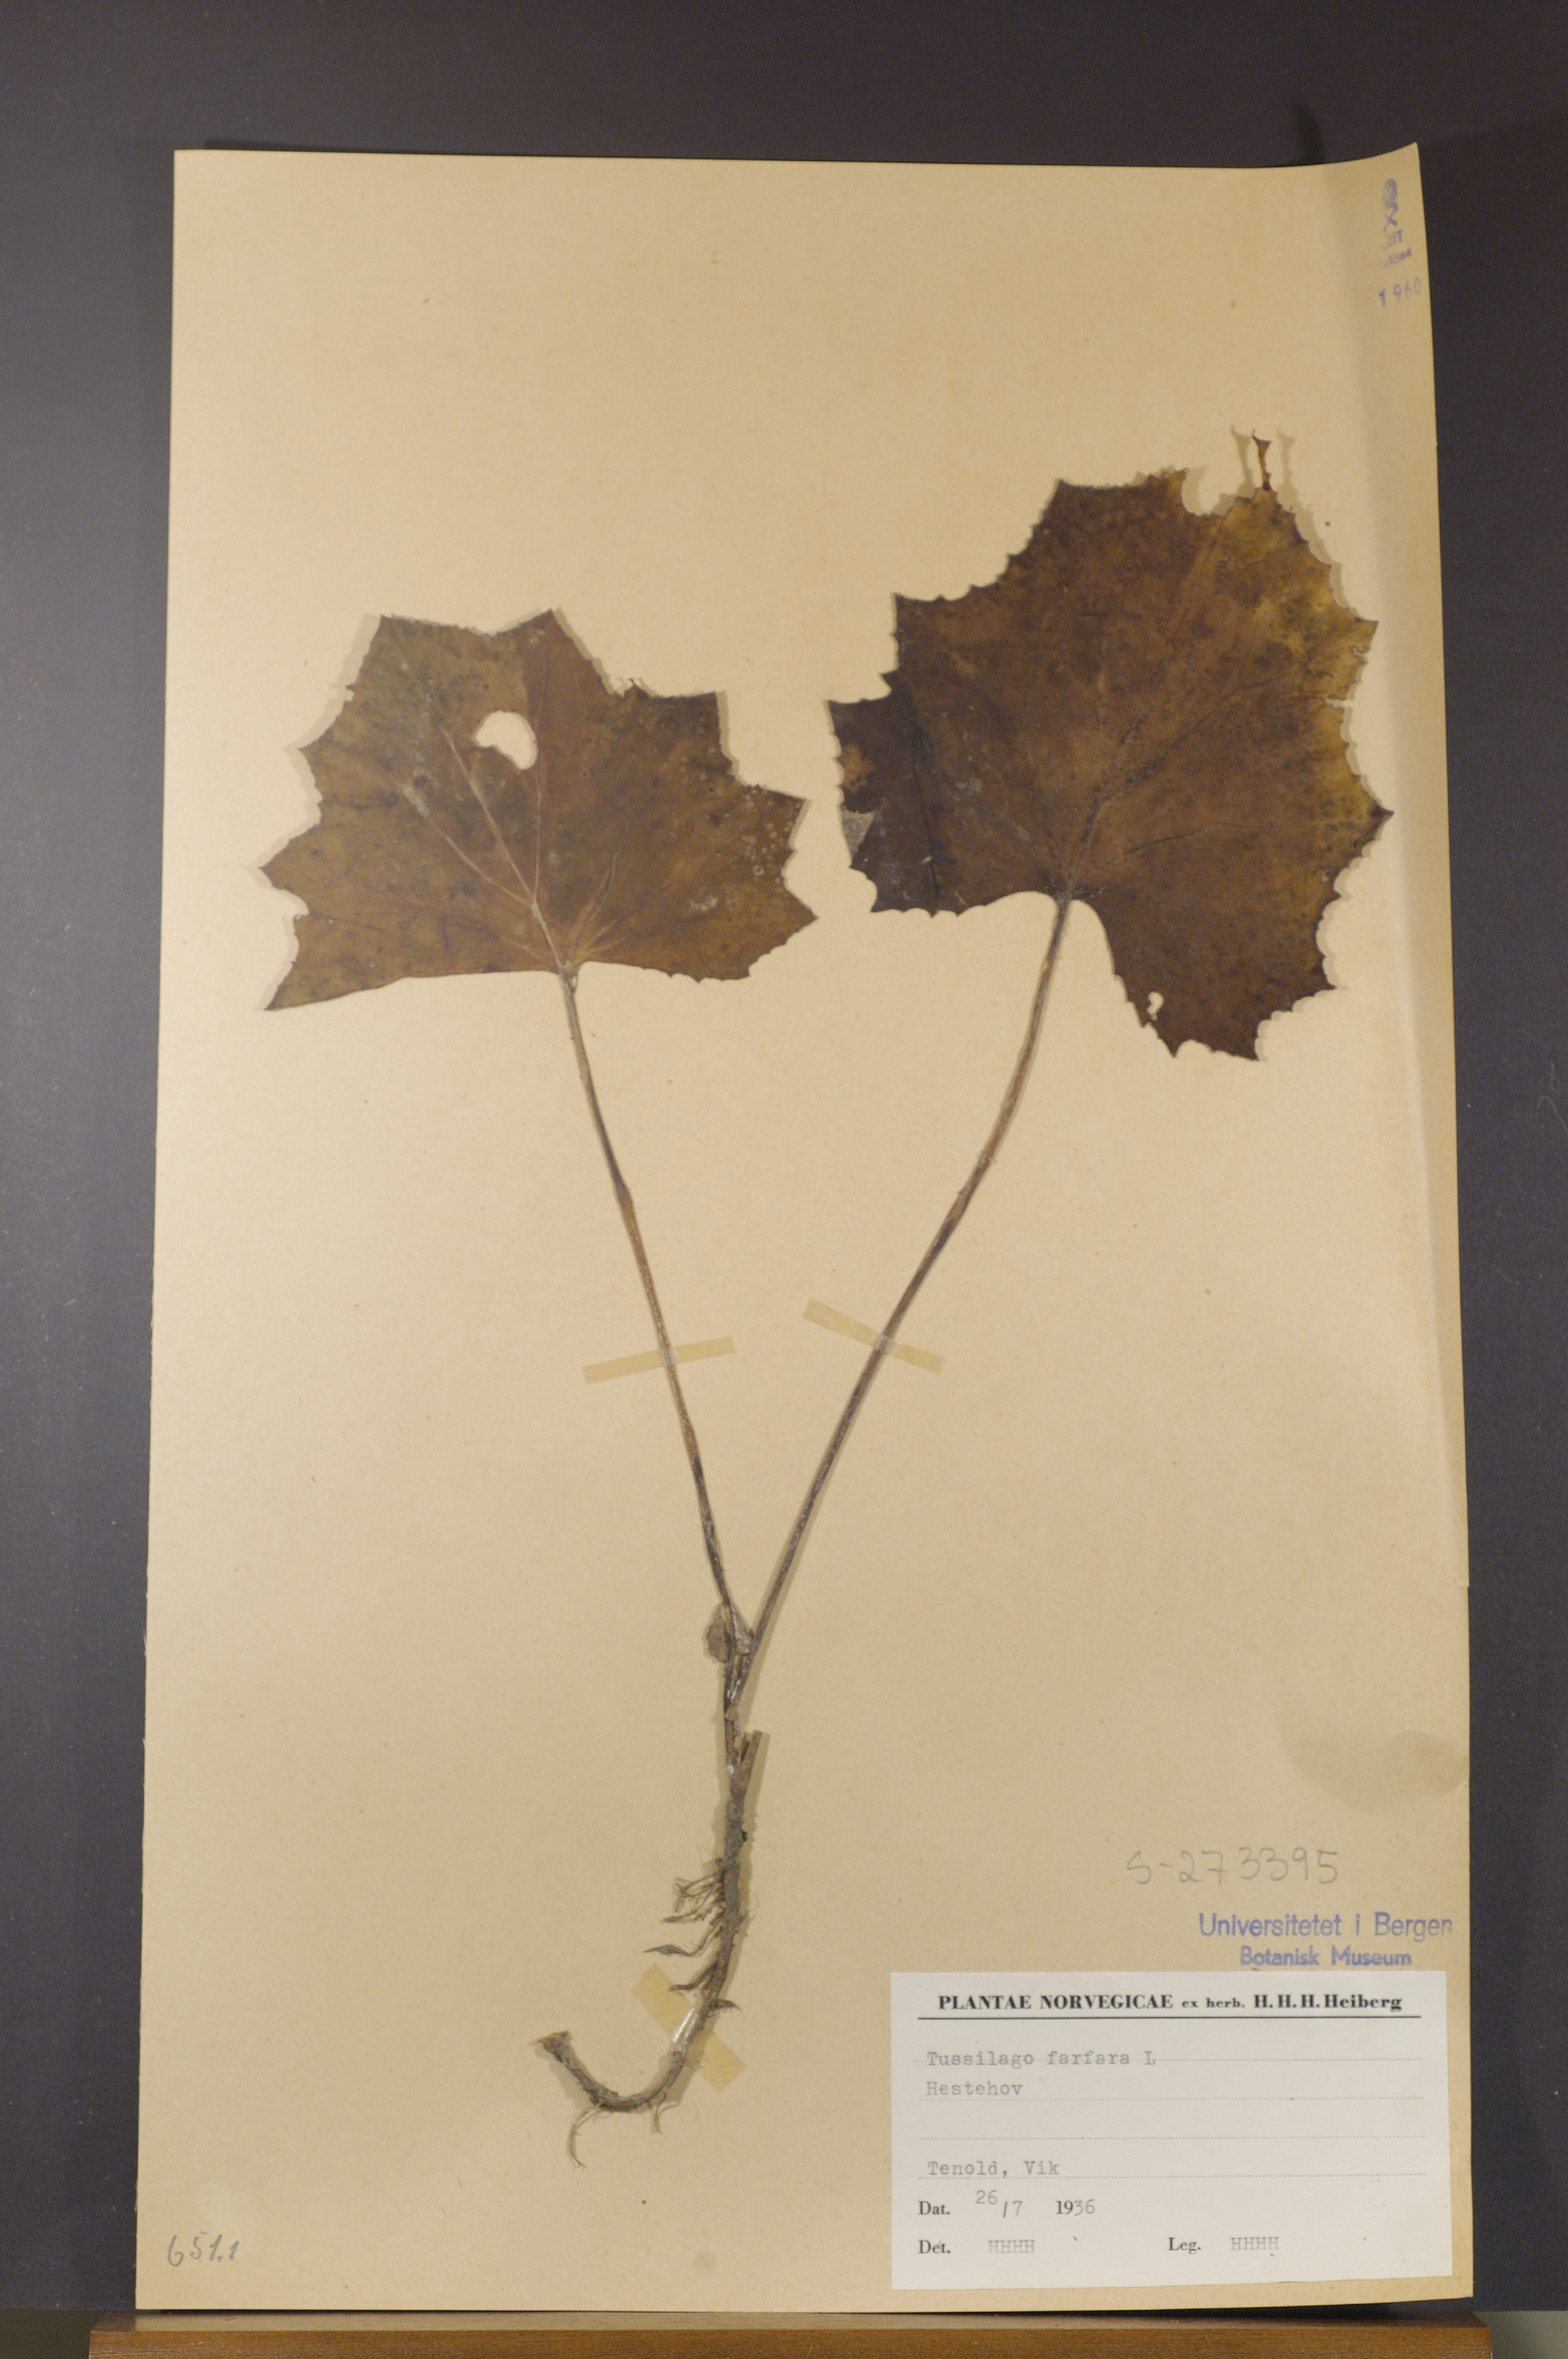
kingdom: Plantae
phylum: Tracheophyta
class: Magnoliopsida
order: Asterales
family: Asteraceae
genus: Tussilago
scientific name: Tussilago farfara
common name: Coltsfoot
